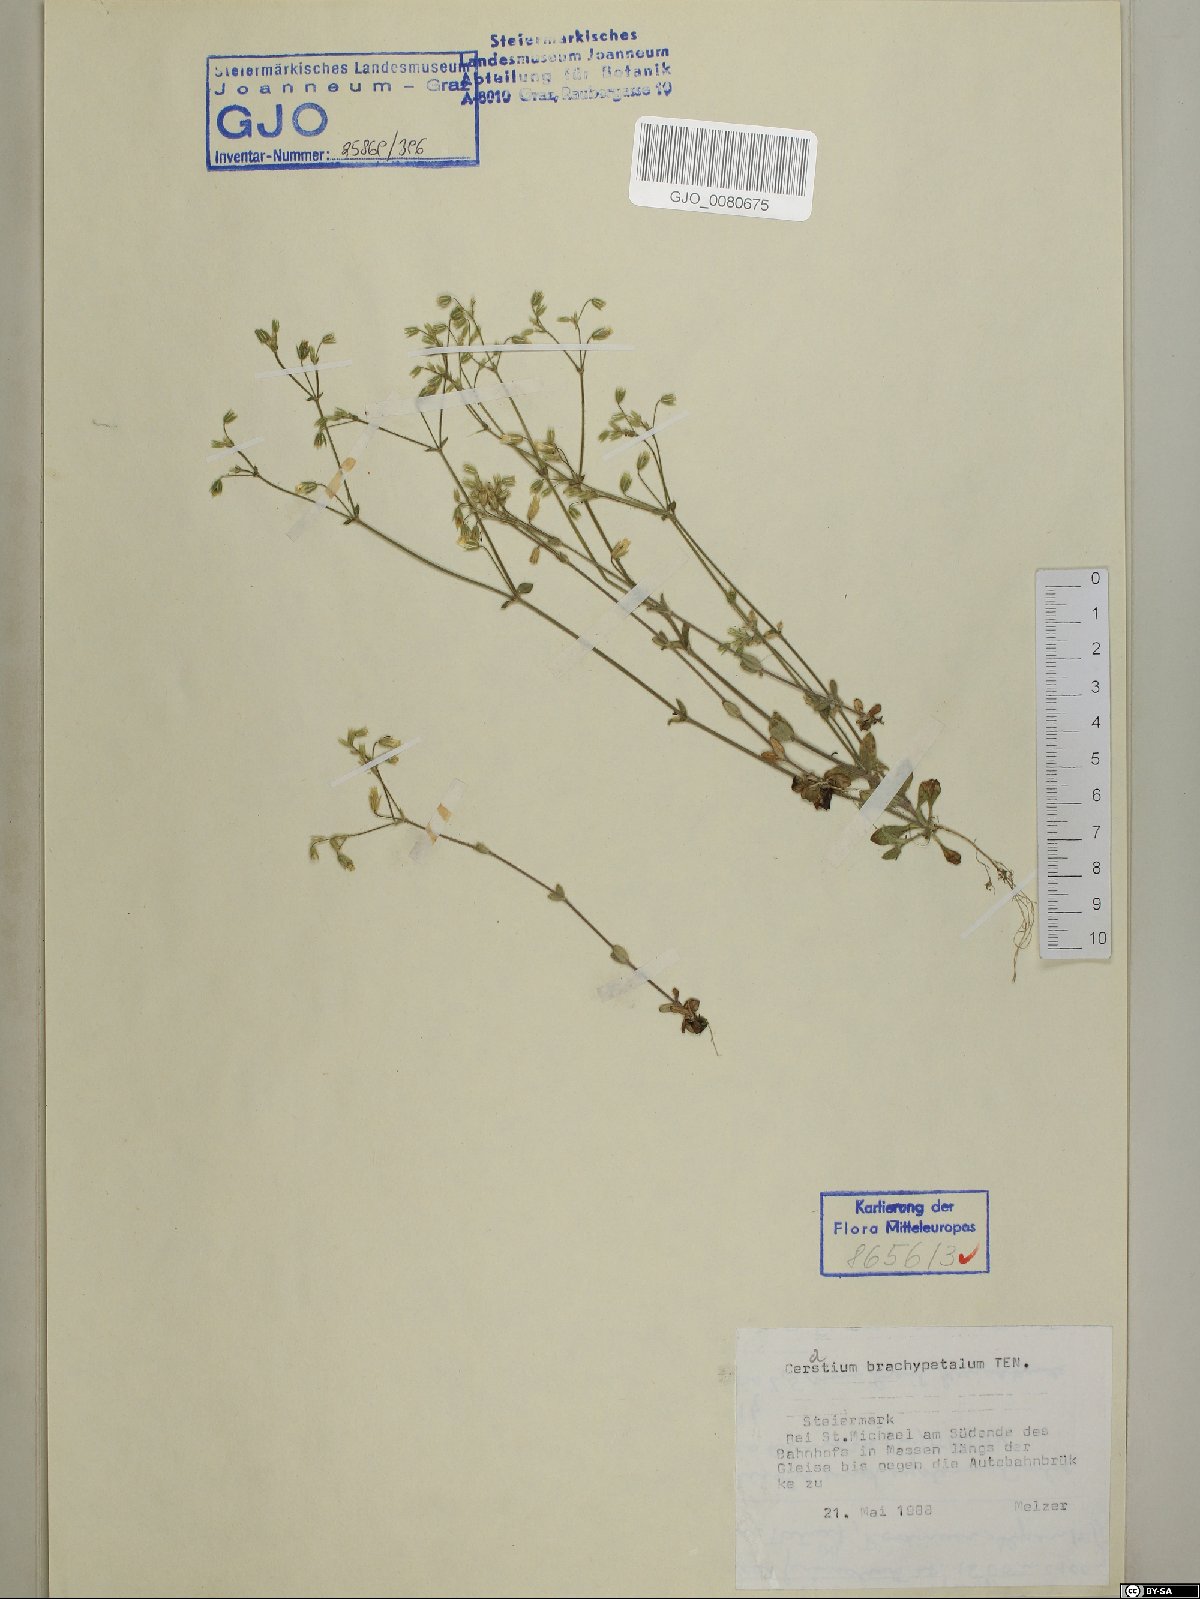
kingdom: Plantae
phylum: Tracheophyta
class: Magnoliopsida
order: Caryophyllales
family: Caryophyllaceae
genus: Cerastium
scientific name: Cerastium brachypetalum
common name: Grey mouse-ear
